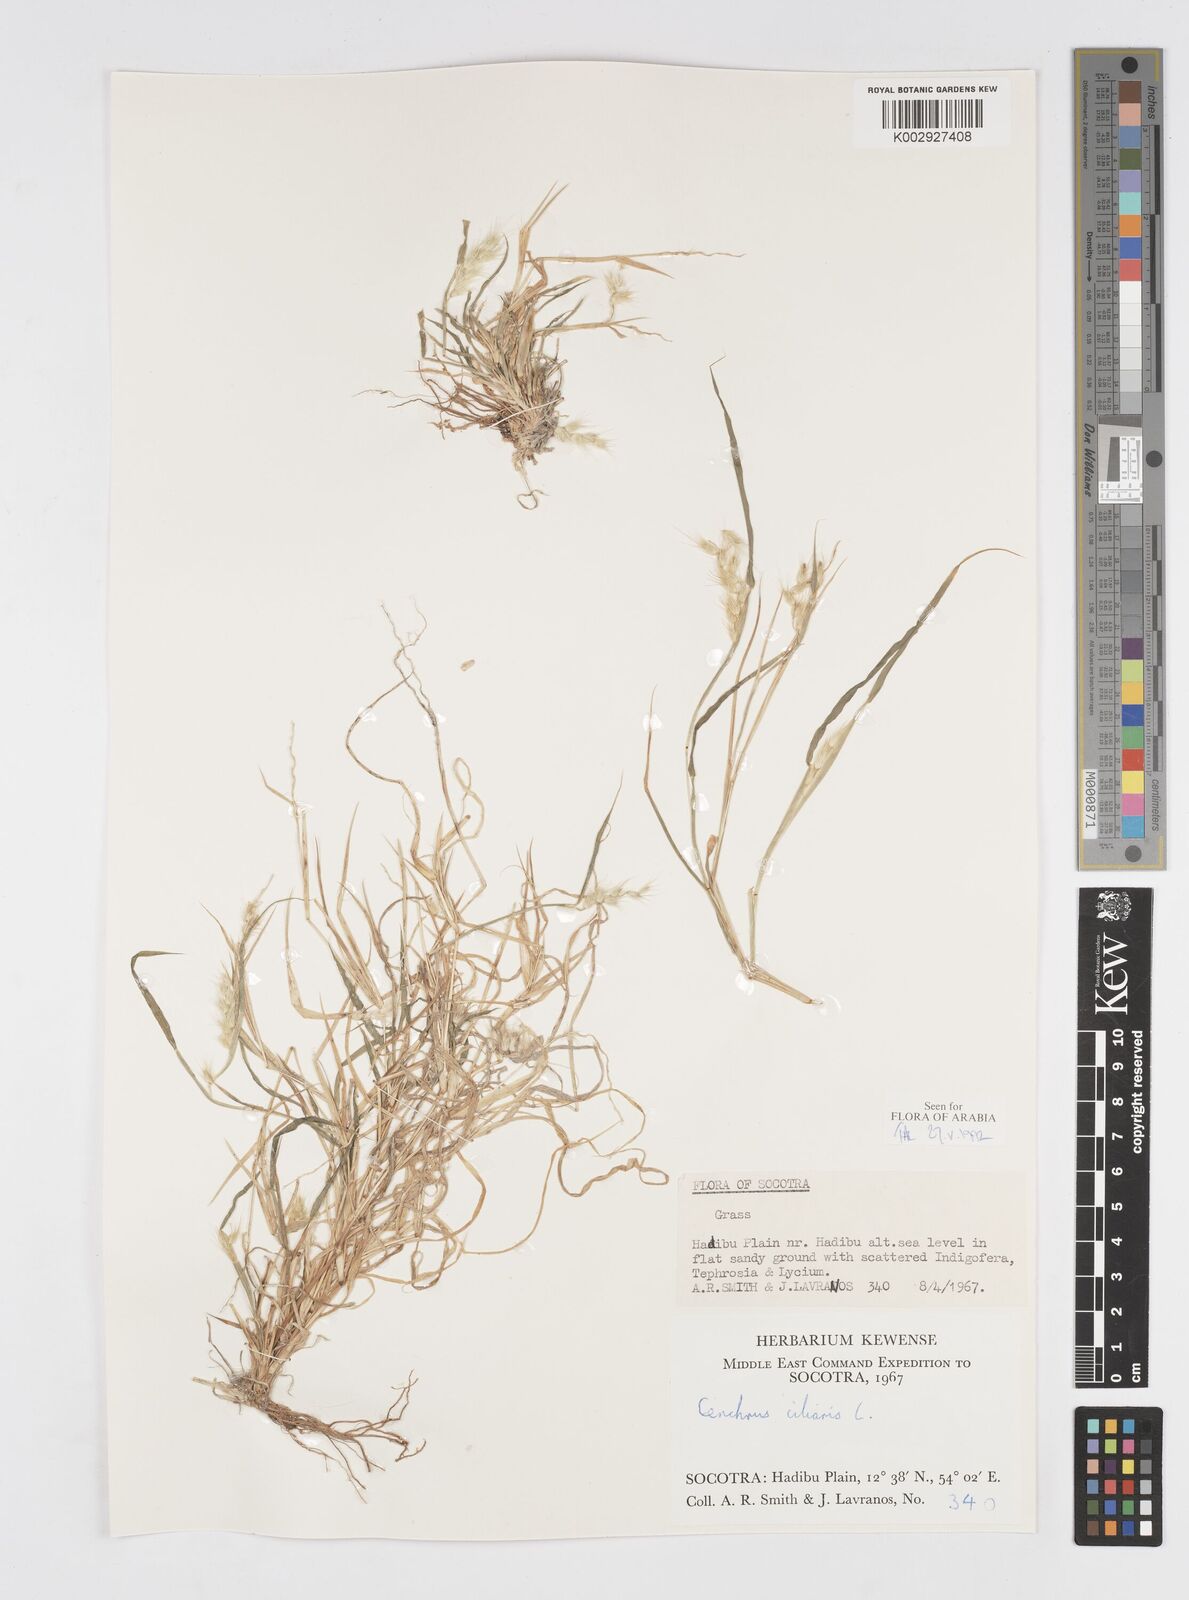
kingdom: Plantae
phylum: Tracheophyta
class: Liliopsida
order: Poales
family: Poaceae
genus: Cenchrus
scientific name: Cenchrus ciliaris
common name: Buffelgrass
